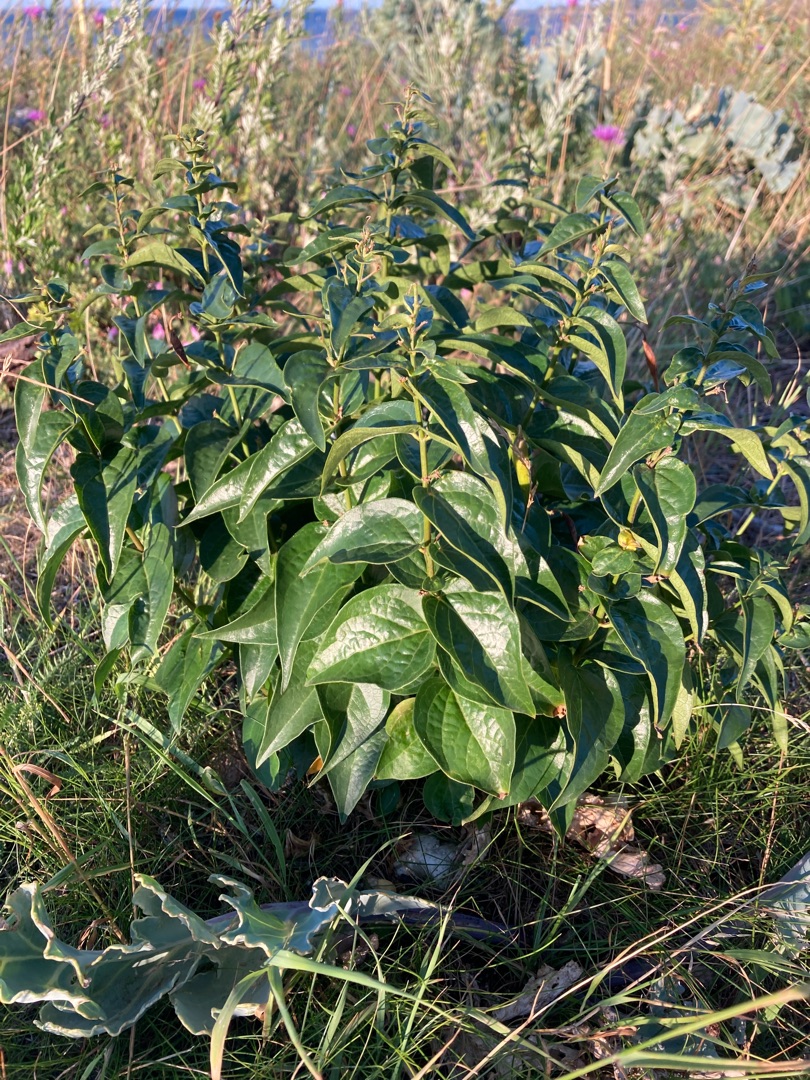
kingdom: Plantae
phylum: Tracheophyta
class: Magnoliopsida
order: Gentianales
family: Apocynaceae
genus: Vincetoxicum
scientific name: Vincetoxicum hirundinaria
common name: Svalerod
